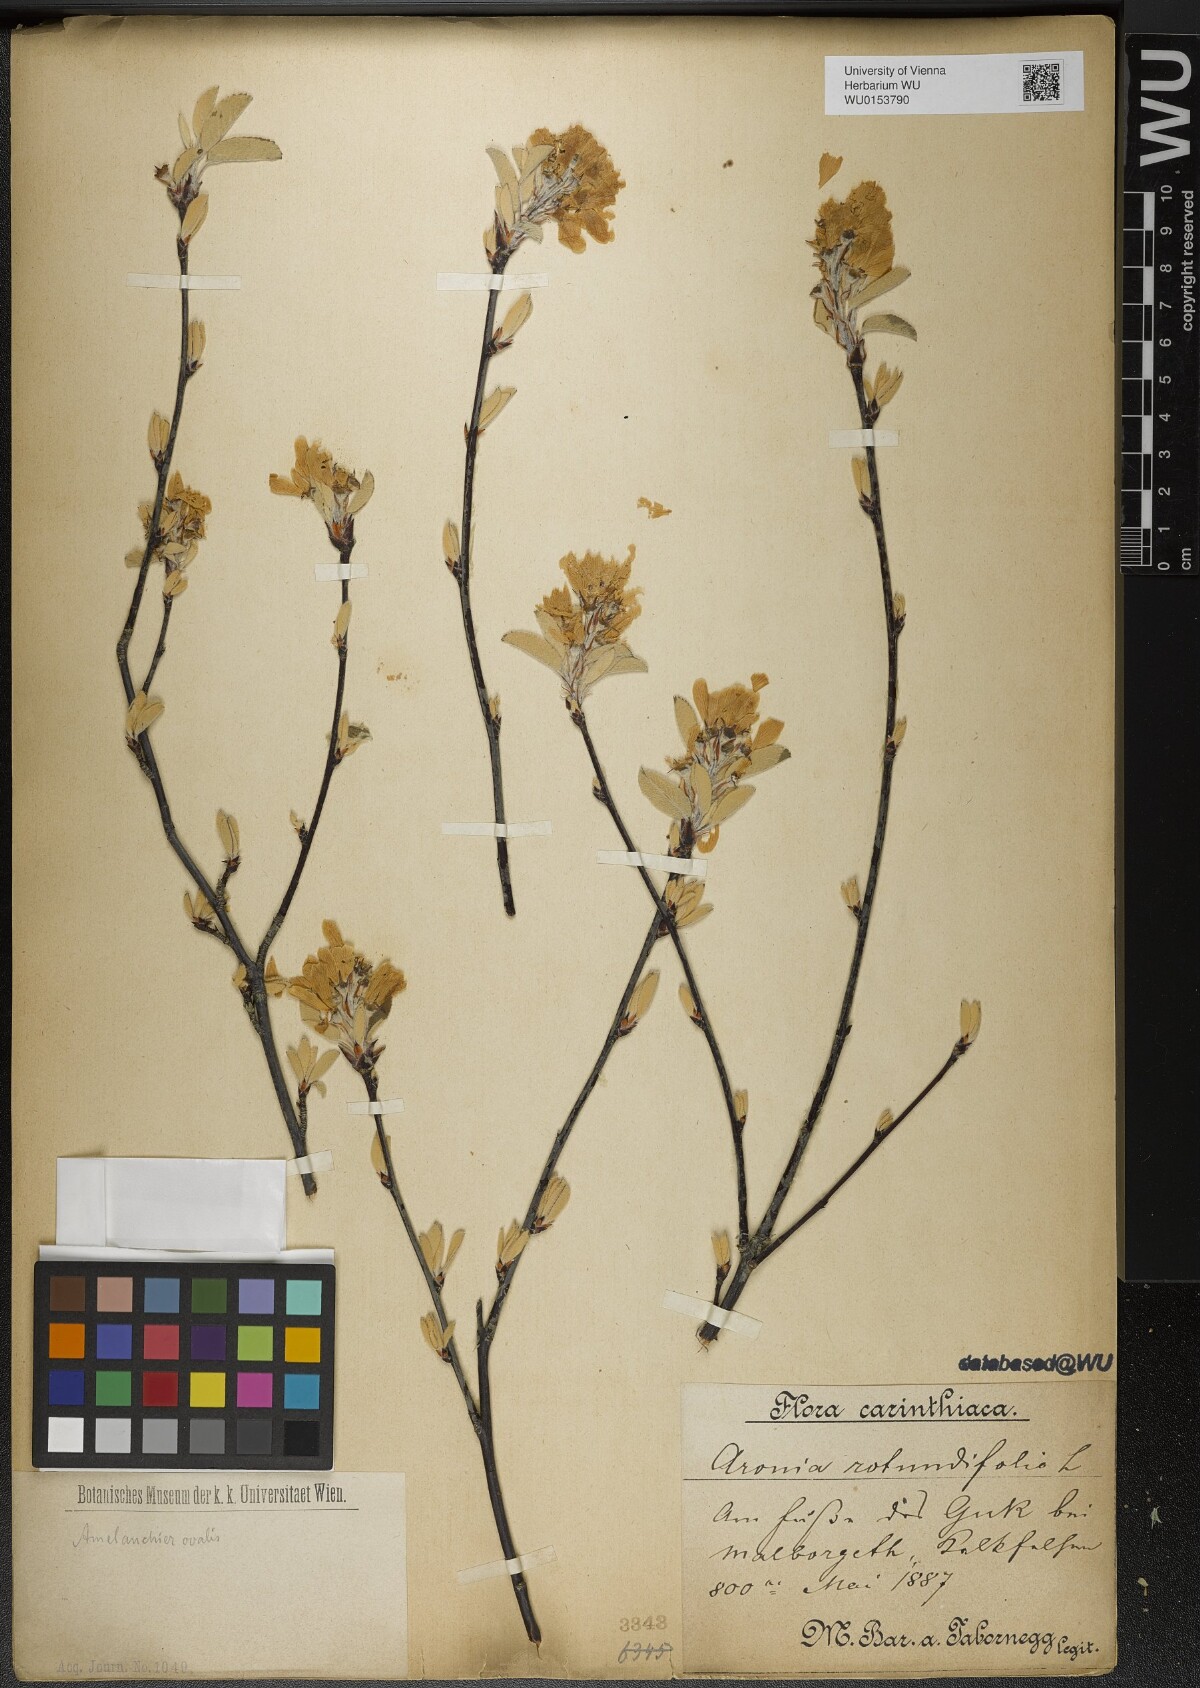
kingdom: Plantae
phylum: Tracheophyta
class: Magnoliopsida
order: Rosales
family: Rosaceae
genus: Amelanchier
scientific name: Amelanchier ovalis
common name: Serviceberry
